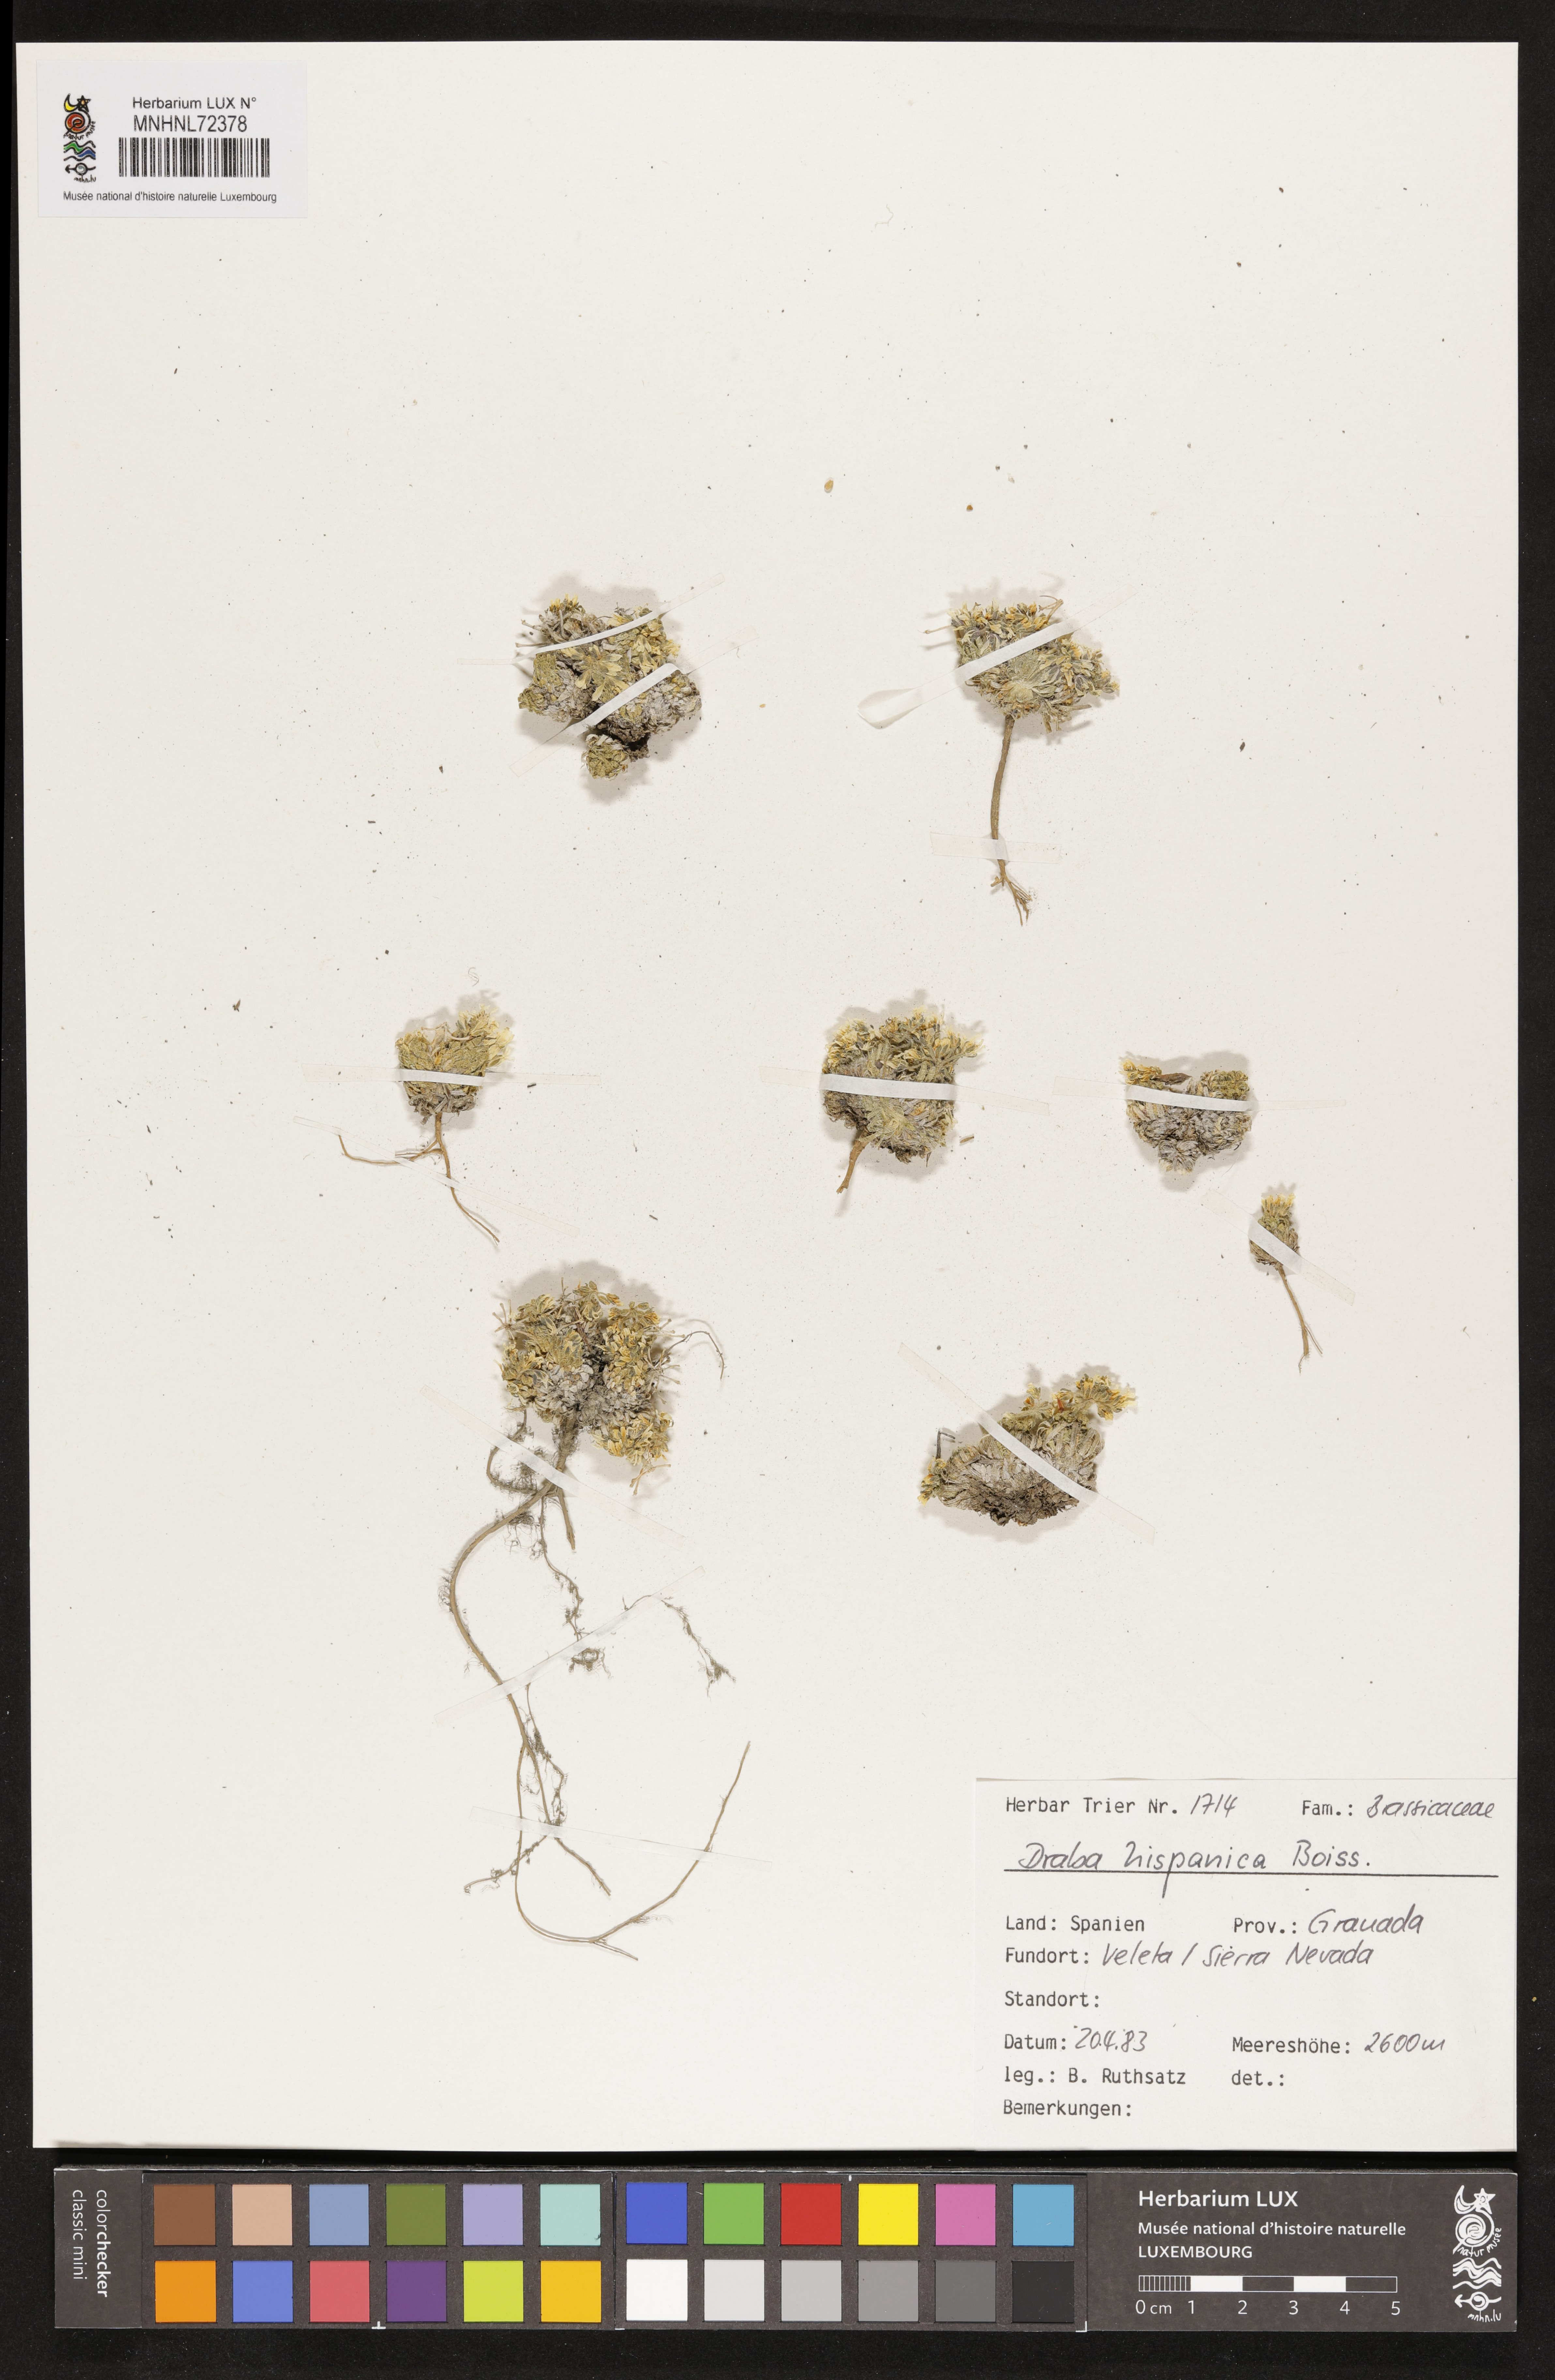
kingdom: Plantae
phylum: Tracheophyta
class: Magnoliopsida
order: Brassicales
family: Brassicaceae
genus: Draba
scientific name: Draba hispanica
